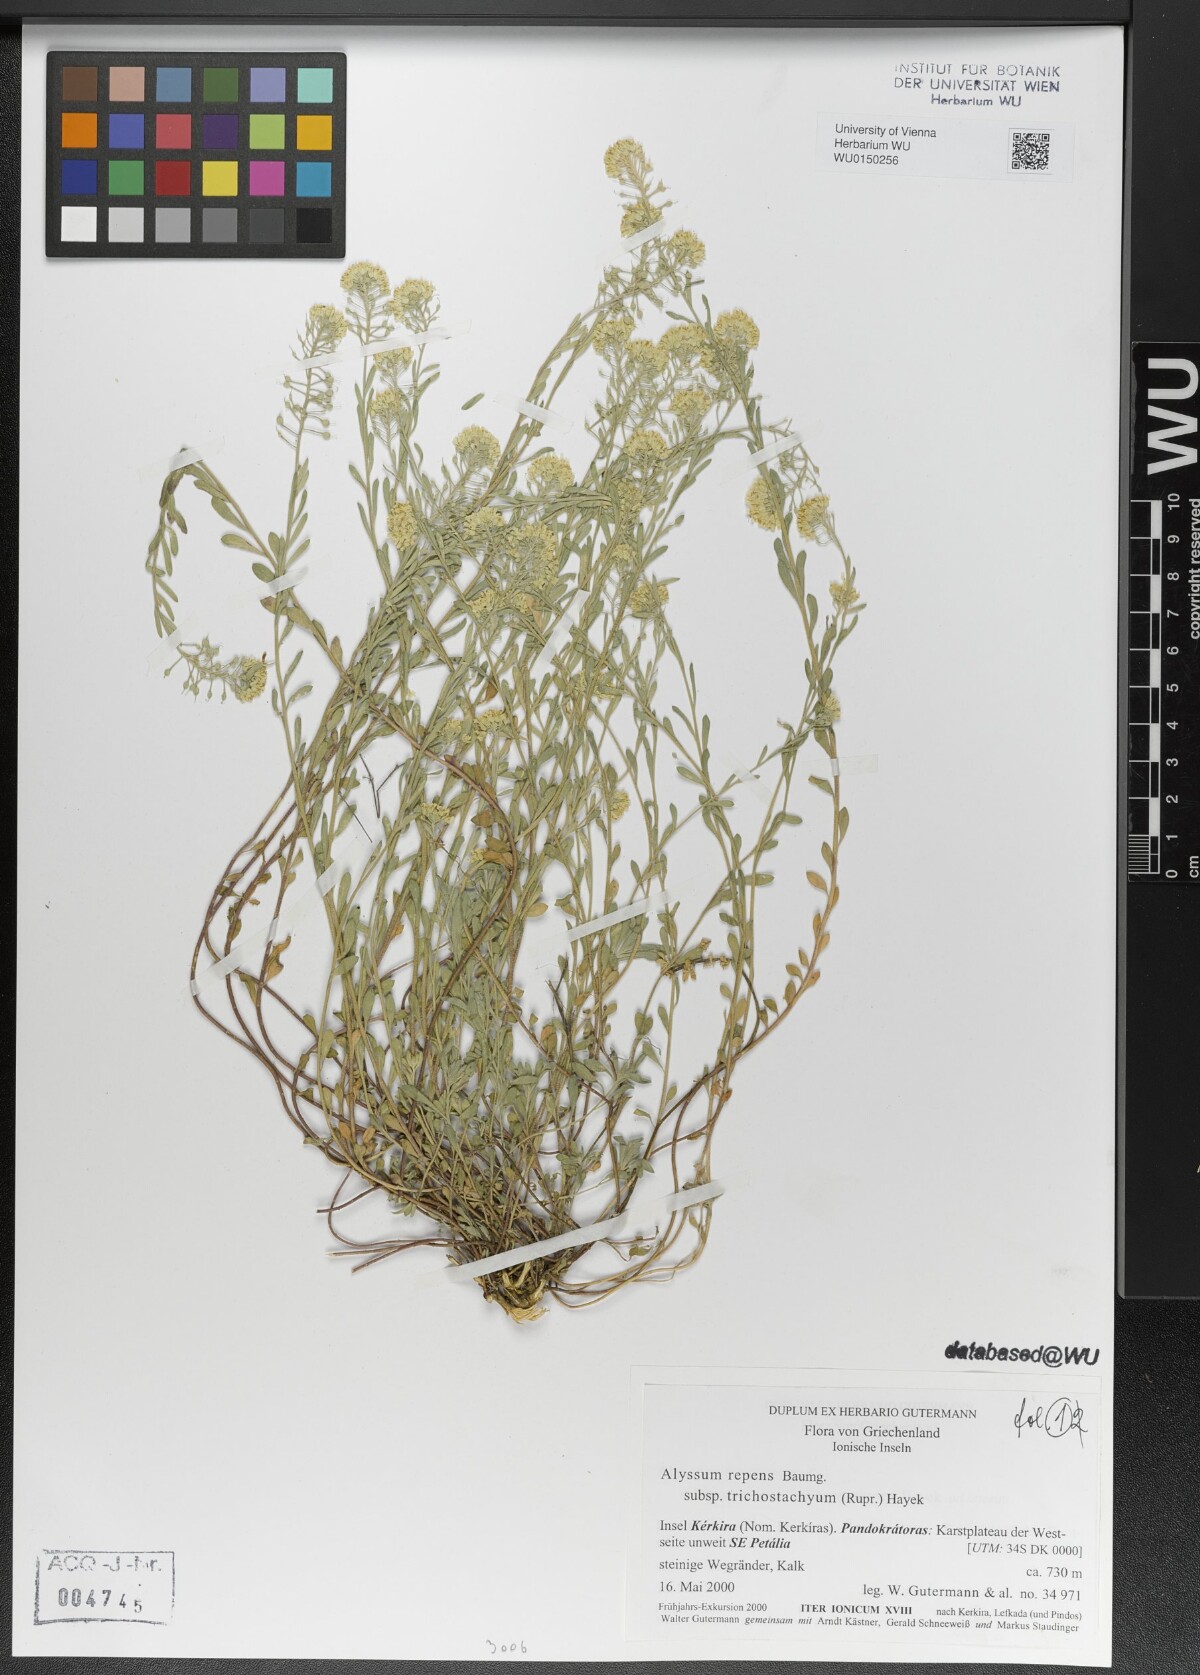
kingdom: Plantae
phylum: Tracheophyta
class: Magnoliopsida
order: Brassicales
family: Brassicaceae
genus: Alyssum
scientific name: Alyssum trichostachyum
